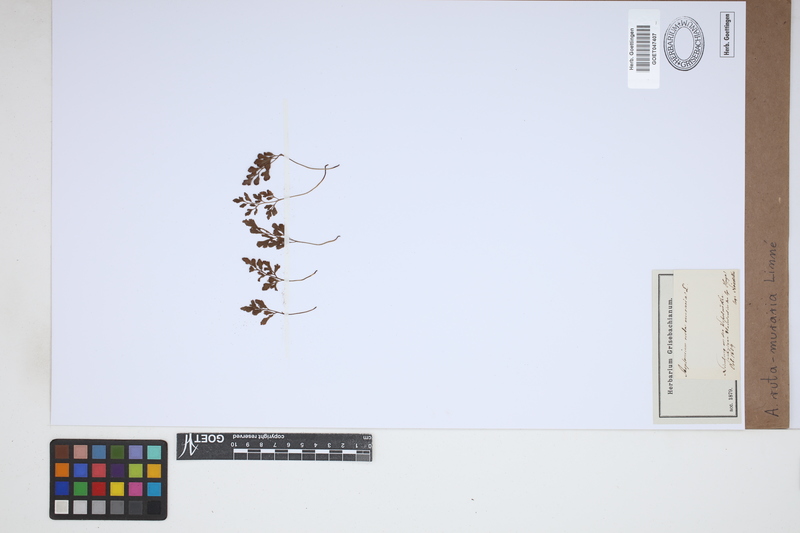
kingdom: Plantae
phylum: Tracheophyta
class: Polypodiopsida
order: Polypodiales
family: Aspleniaceae
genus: Asplenium
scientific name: Asplenium ruta-muraria
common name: Wall-rue
